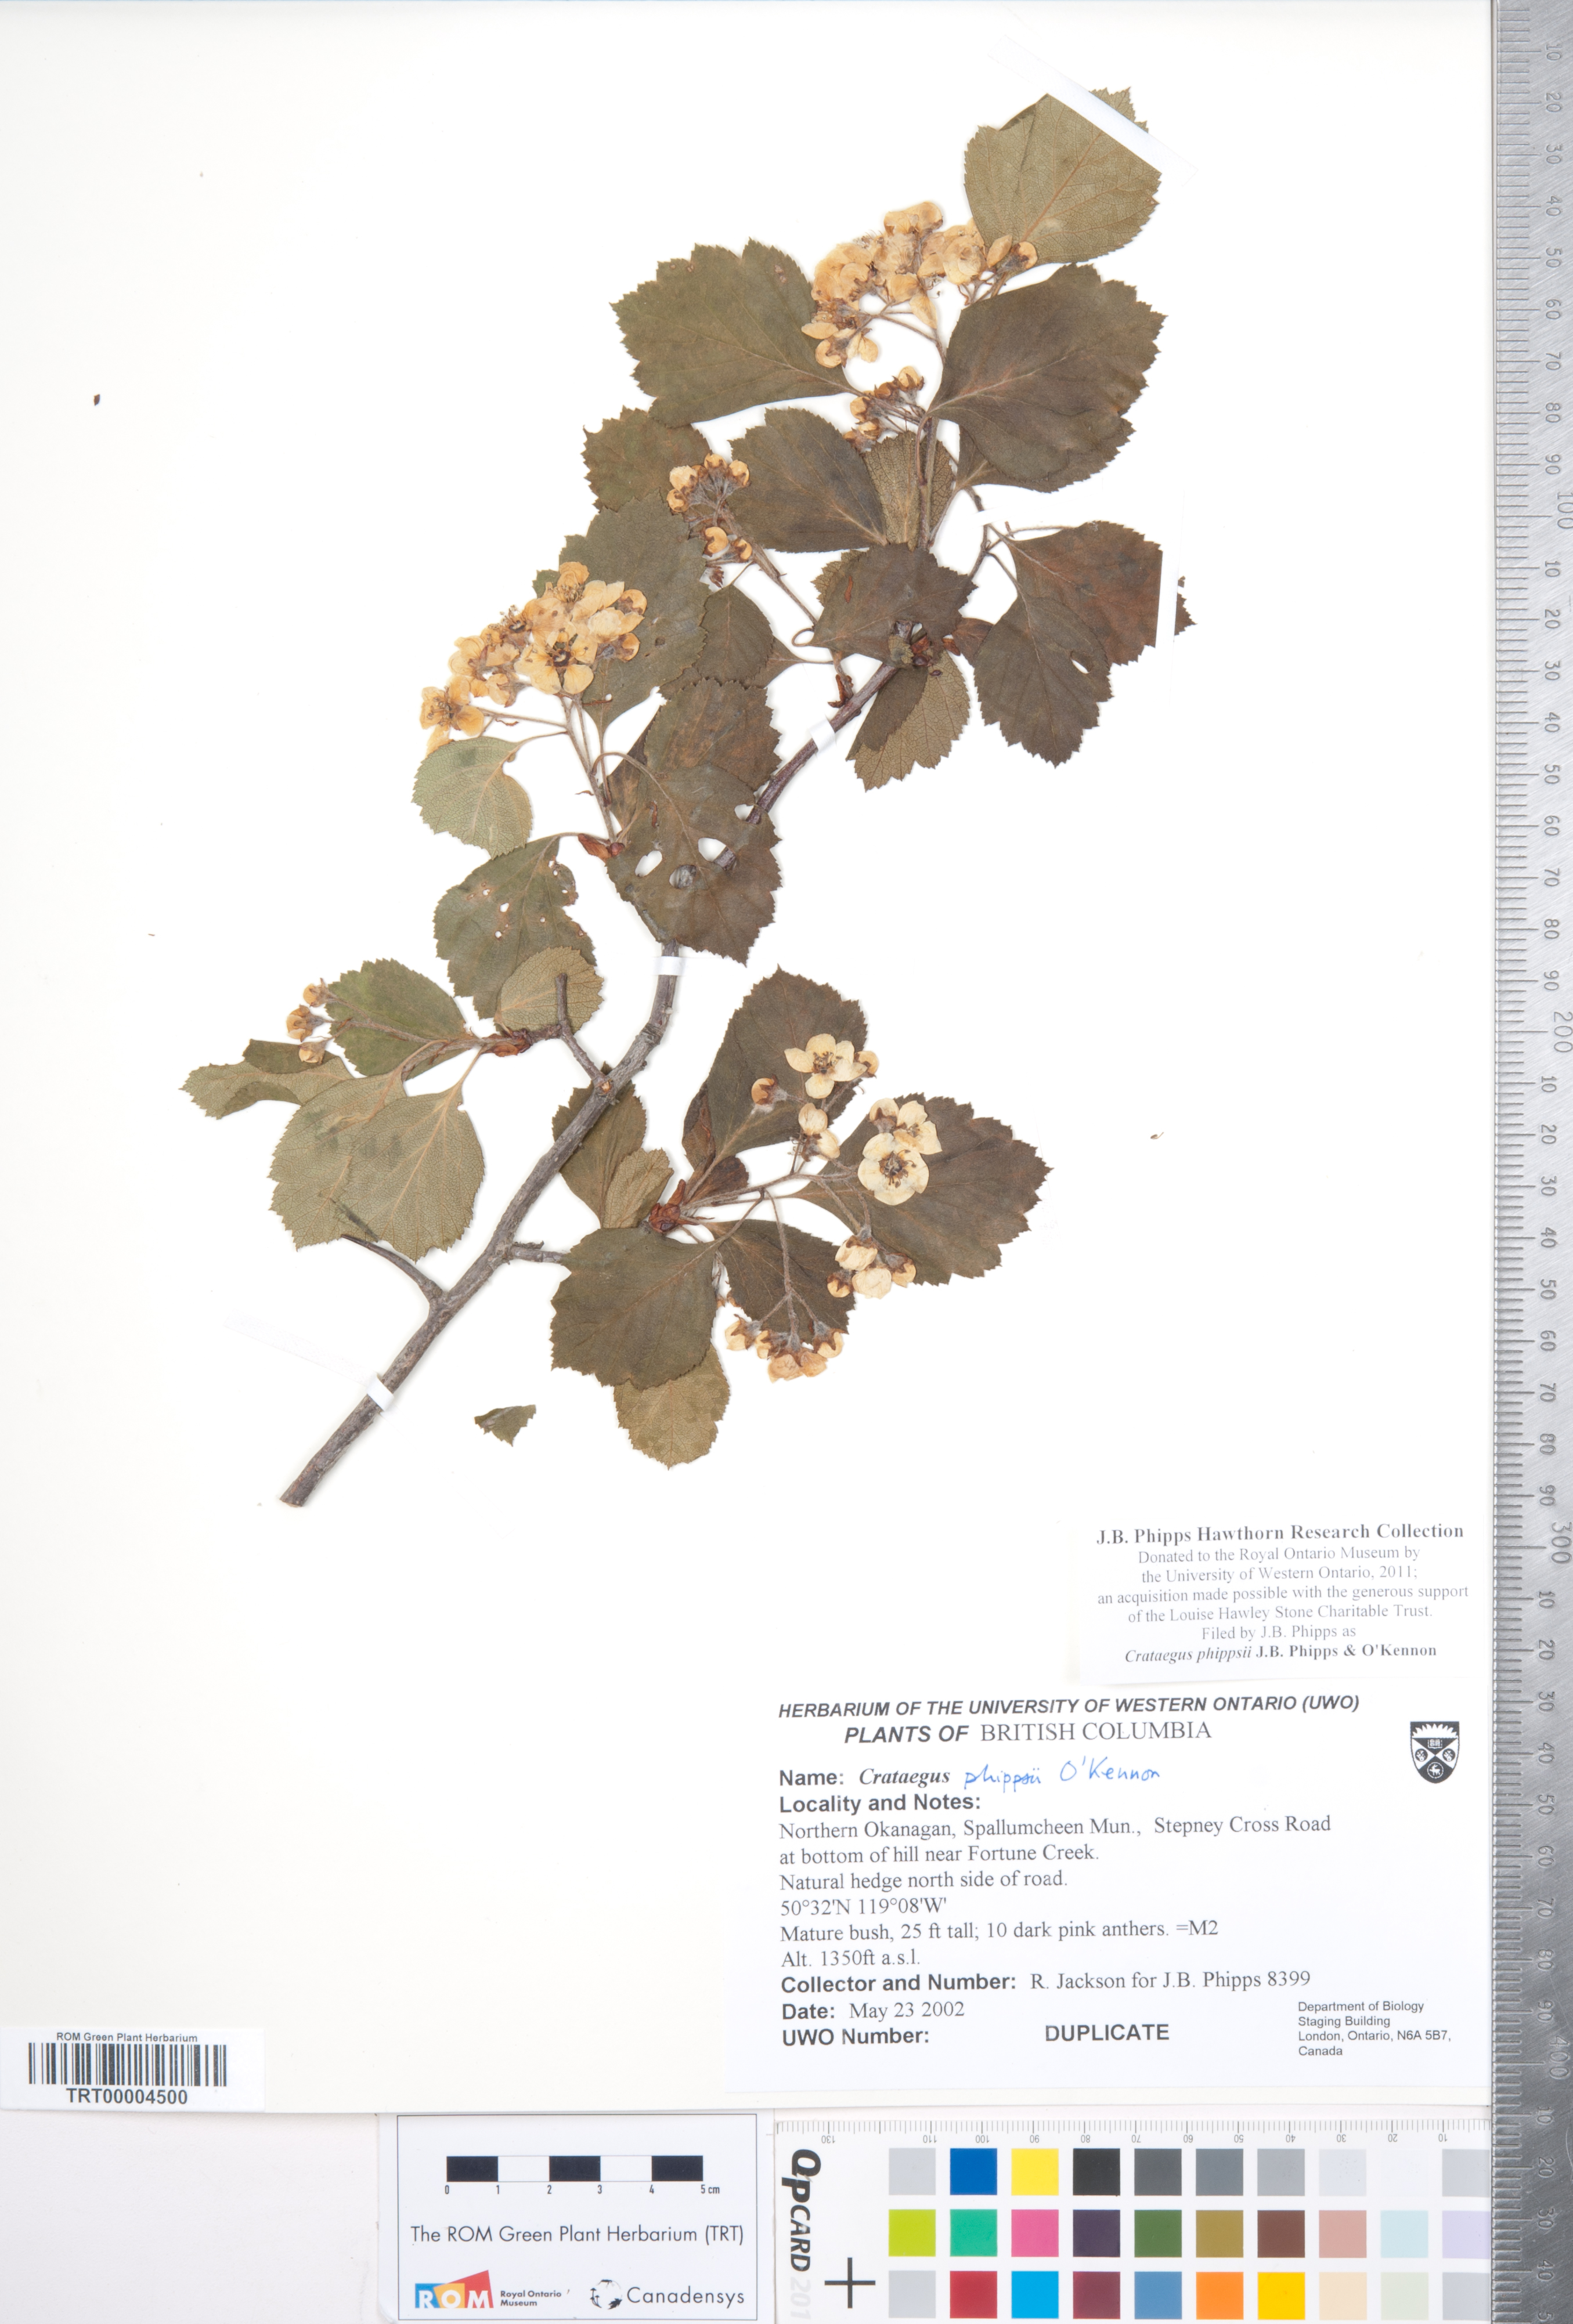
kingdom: Plantae
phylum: Tracheophyta
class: Magnoliopsida
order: Rosales
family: Rosaceae
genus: Crataegus
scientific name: Crataegus phippsii
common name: Phipps' hawthorn
